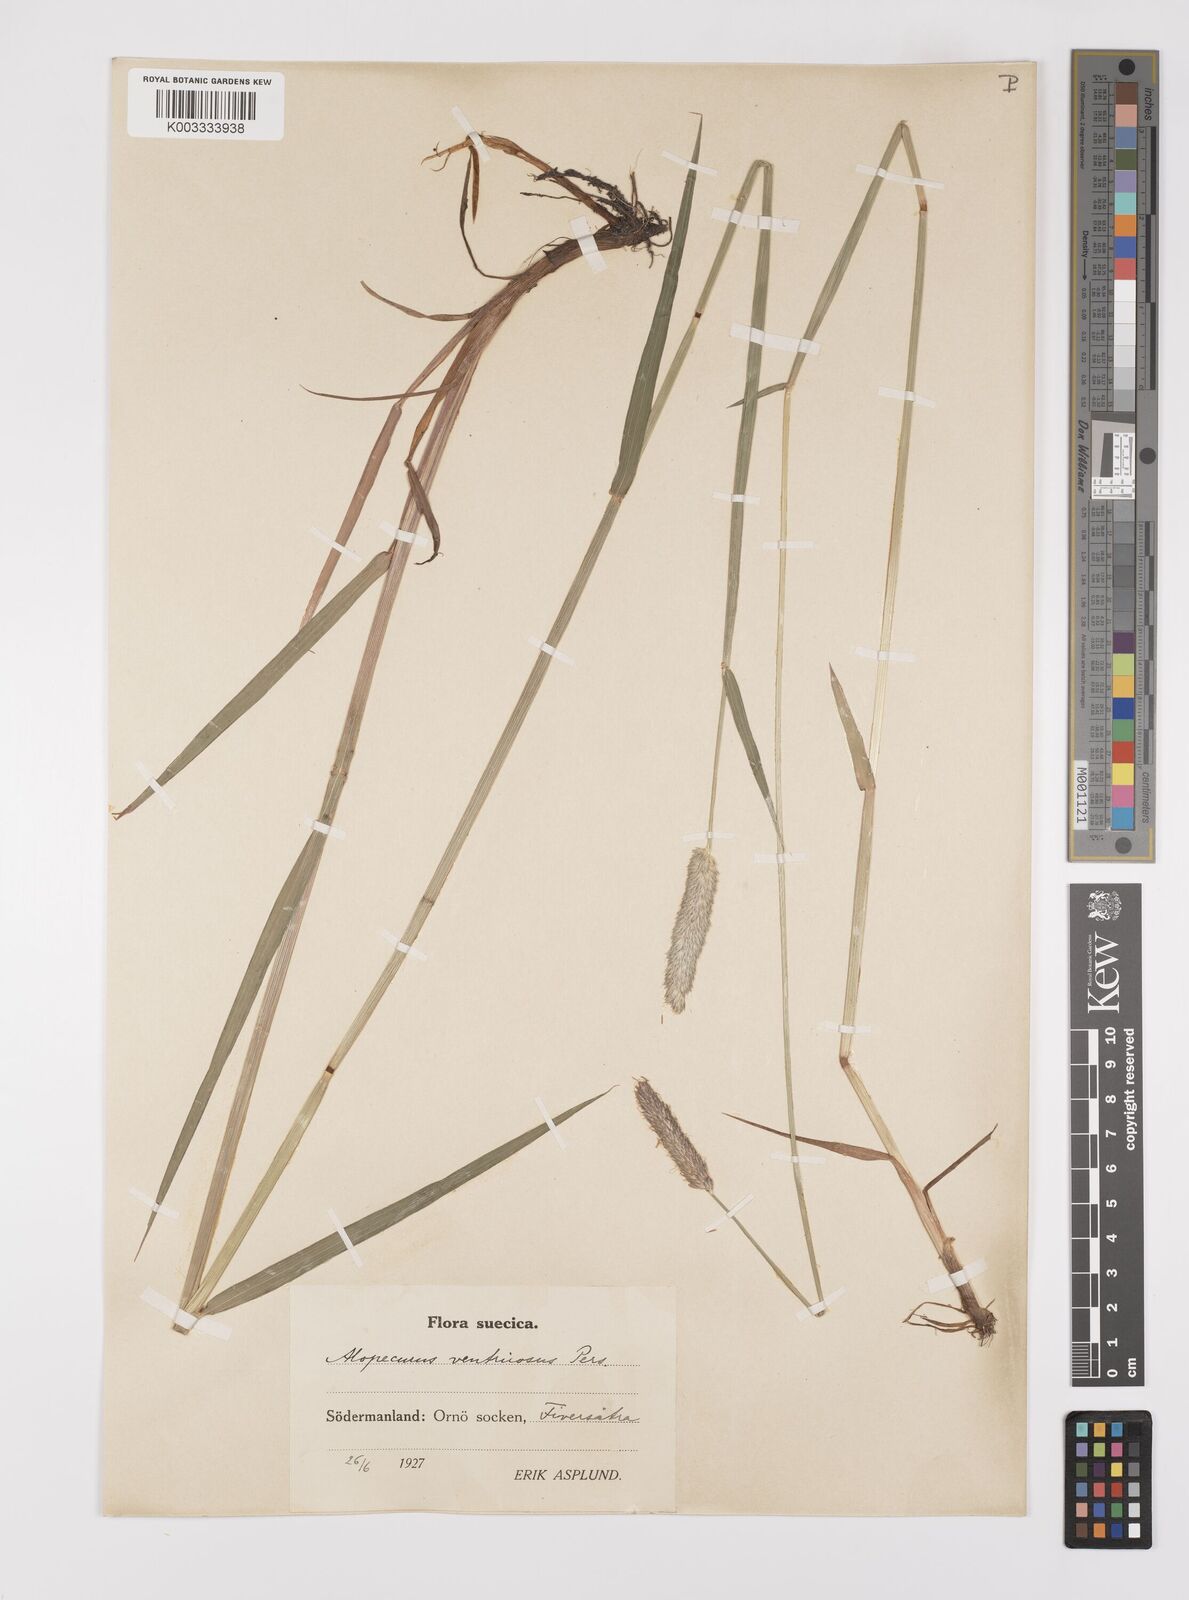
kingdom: Plantae
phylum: Tracheophyta
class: Liliopsida
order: Poales
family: Poaceae
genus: Alopecurus
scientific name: Alopecurus arundinaceus
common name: Creeping meadow foxtail
